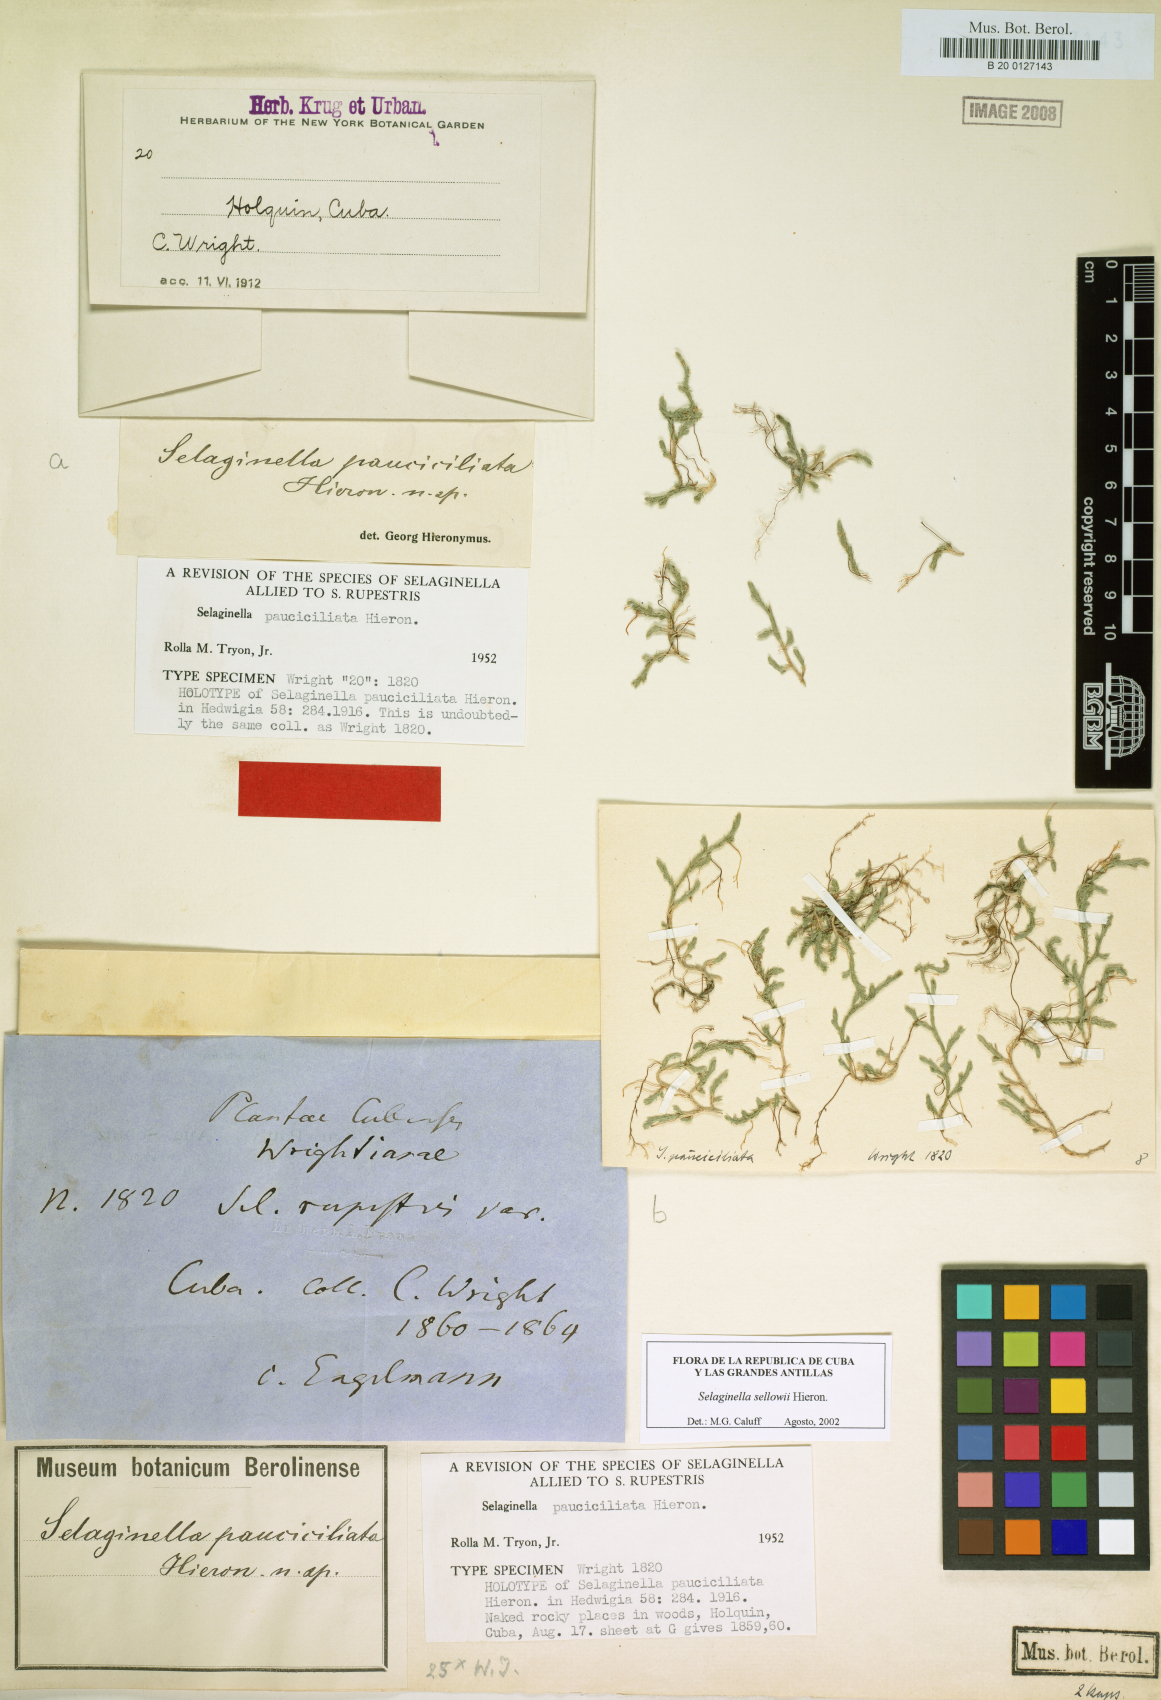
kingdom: Plantae
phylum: Tracheophyta
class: Lycopodiopsida
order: Selaginellales
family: Selaginellaceae
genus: Selaginella
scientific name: Selaginella sellowii
